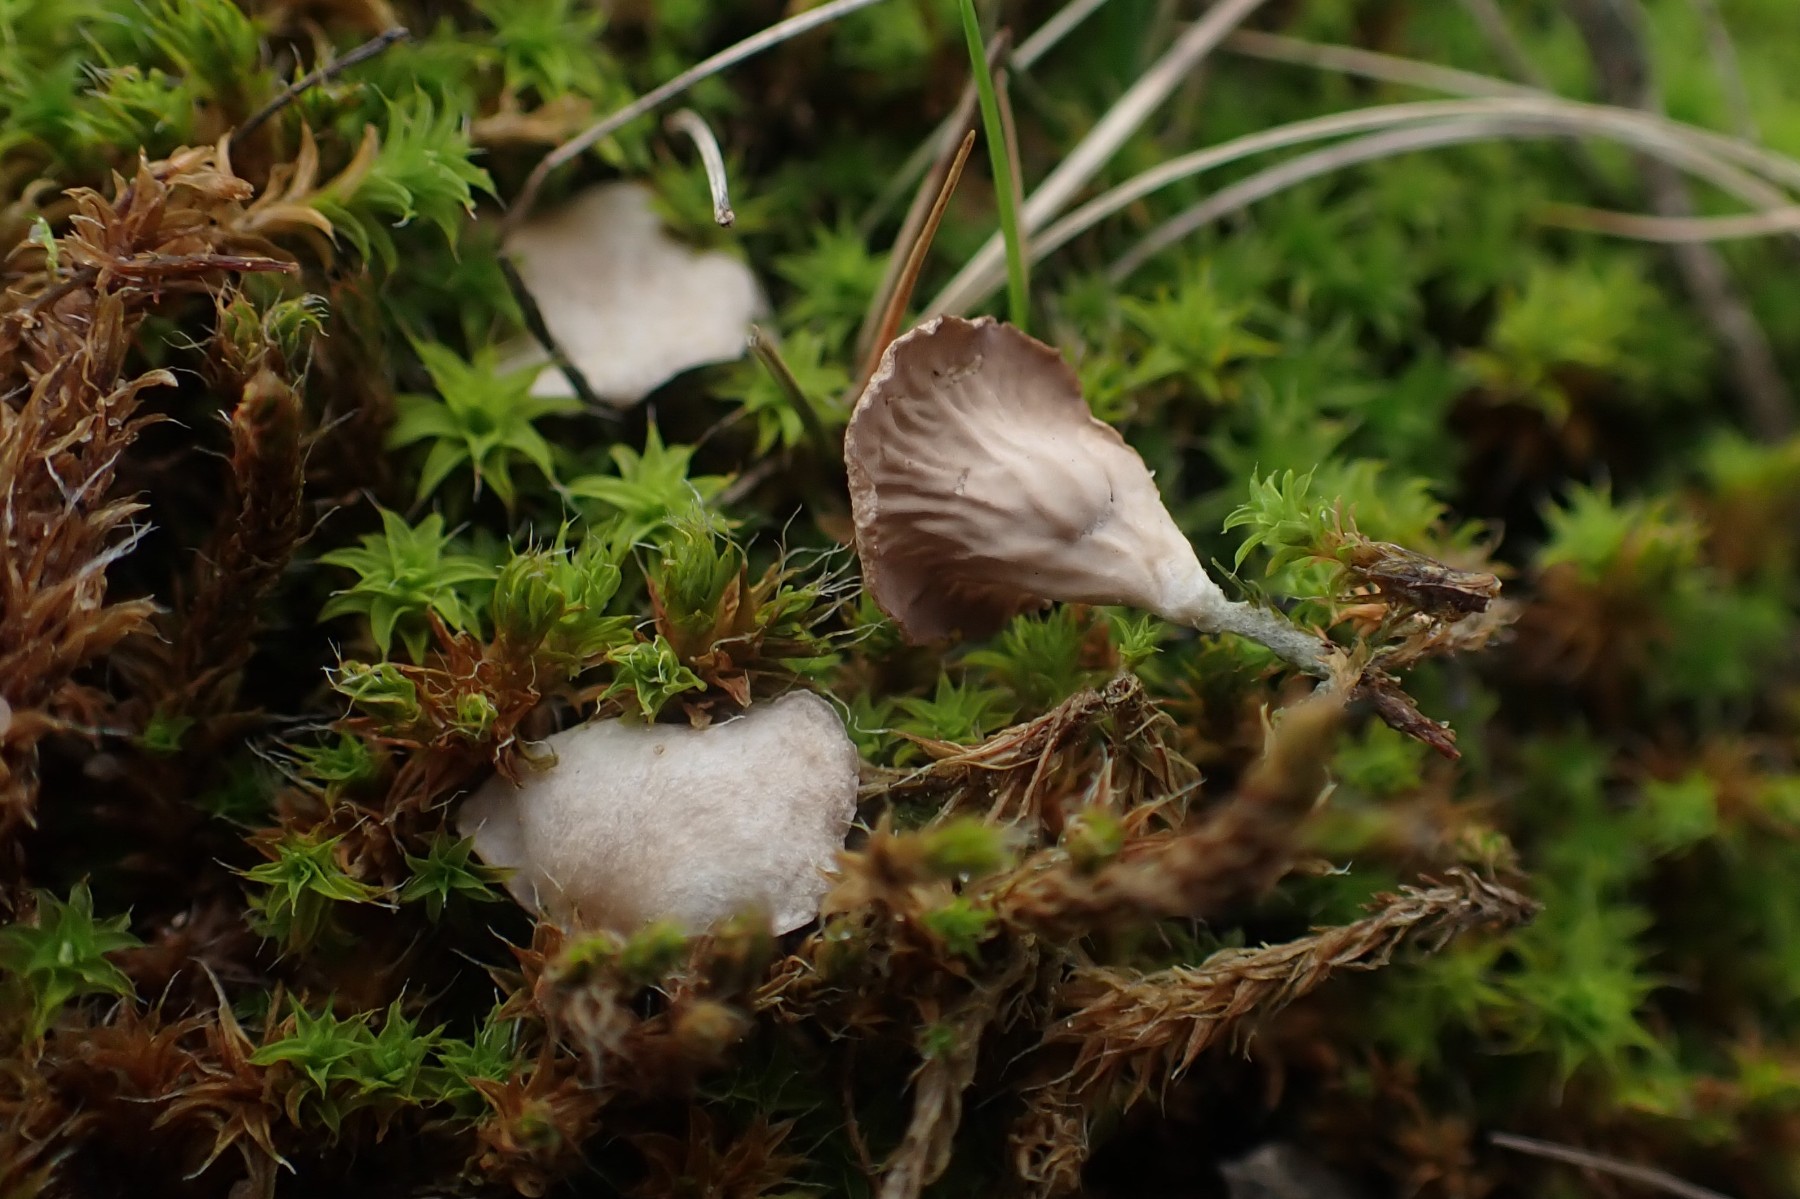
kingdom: Fungi
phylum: Basidiomycota
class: Agaricomycetes
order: Agaricales
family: Hygrophoraceae
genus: Arrhenia
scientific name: Arrhenia spathulata
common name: skæv fontænehat
